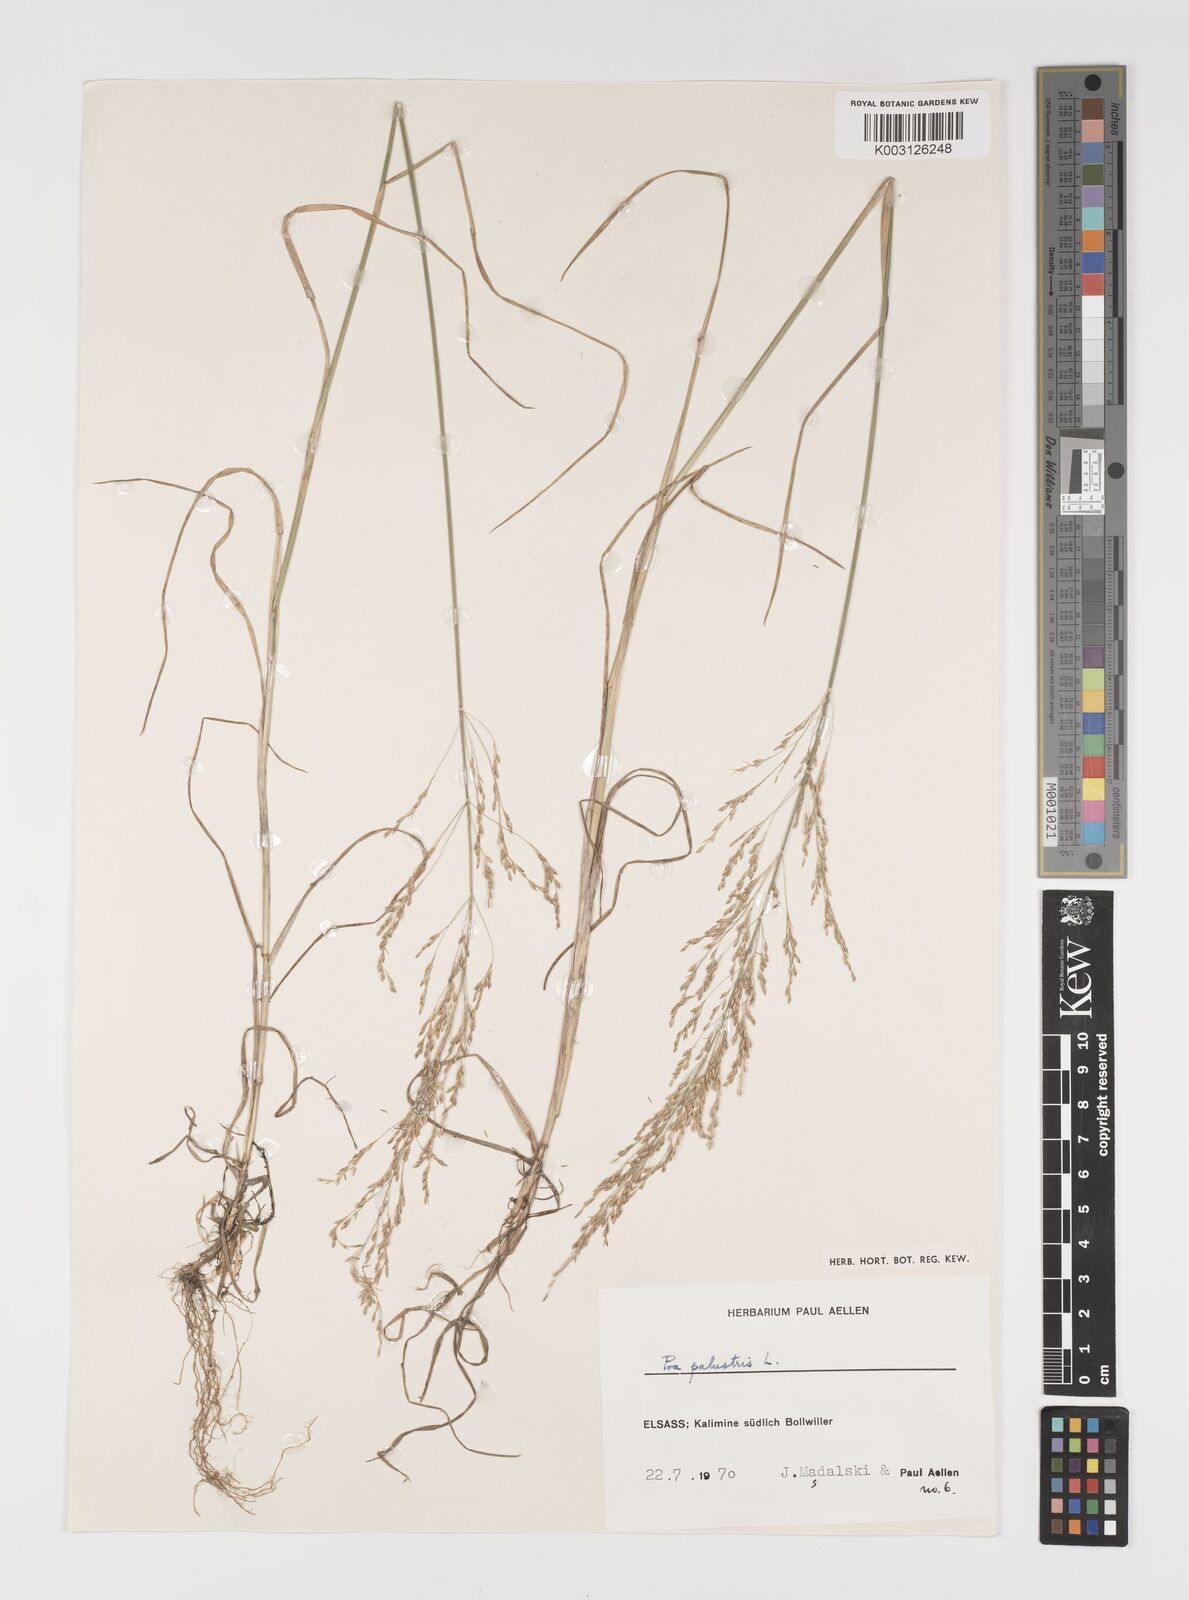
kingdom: Plantae
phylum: Tracheophyta
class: Liliopsida
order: Poales
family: Poaceae
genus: Poa
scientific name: Poa palustris
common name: Swamp meadow-grass
